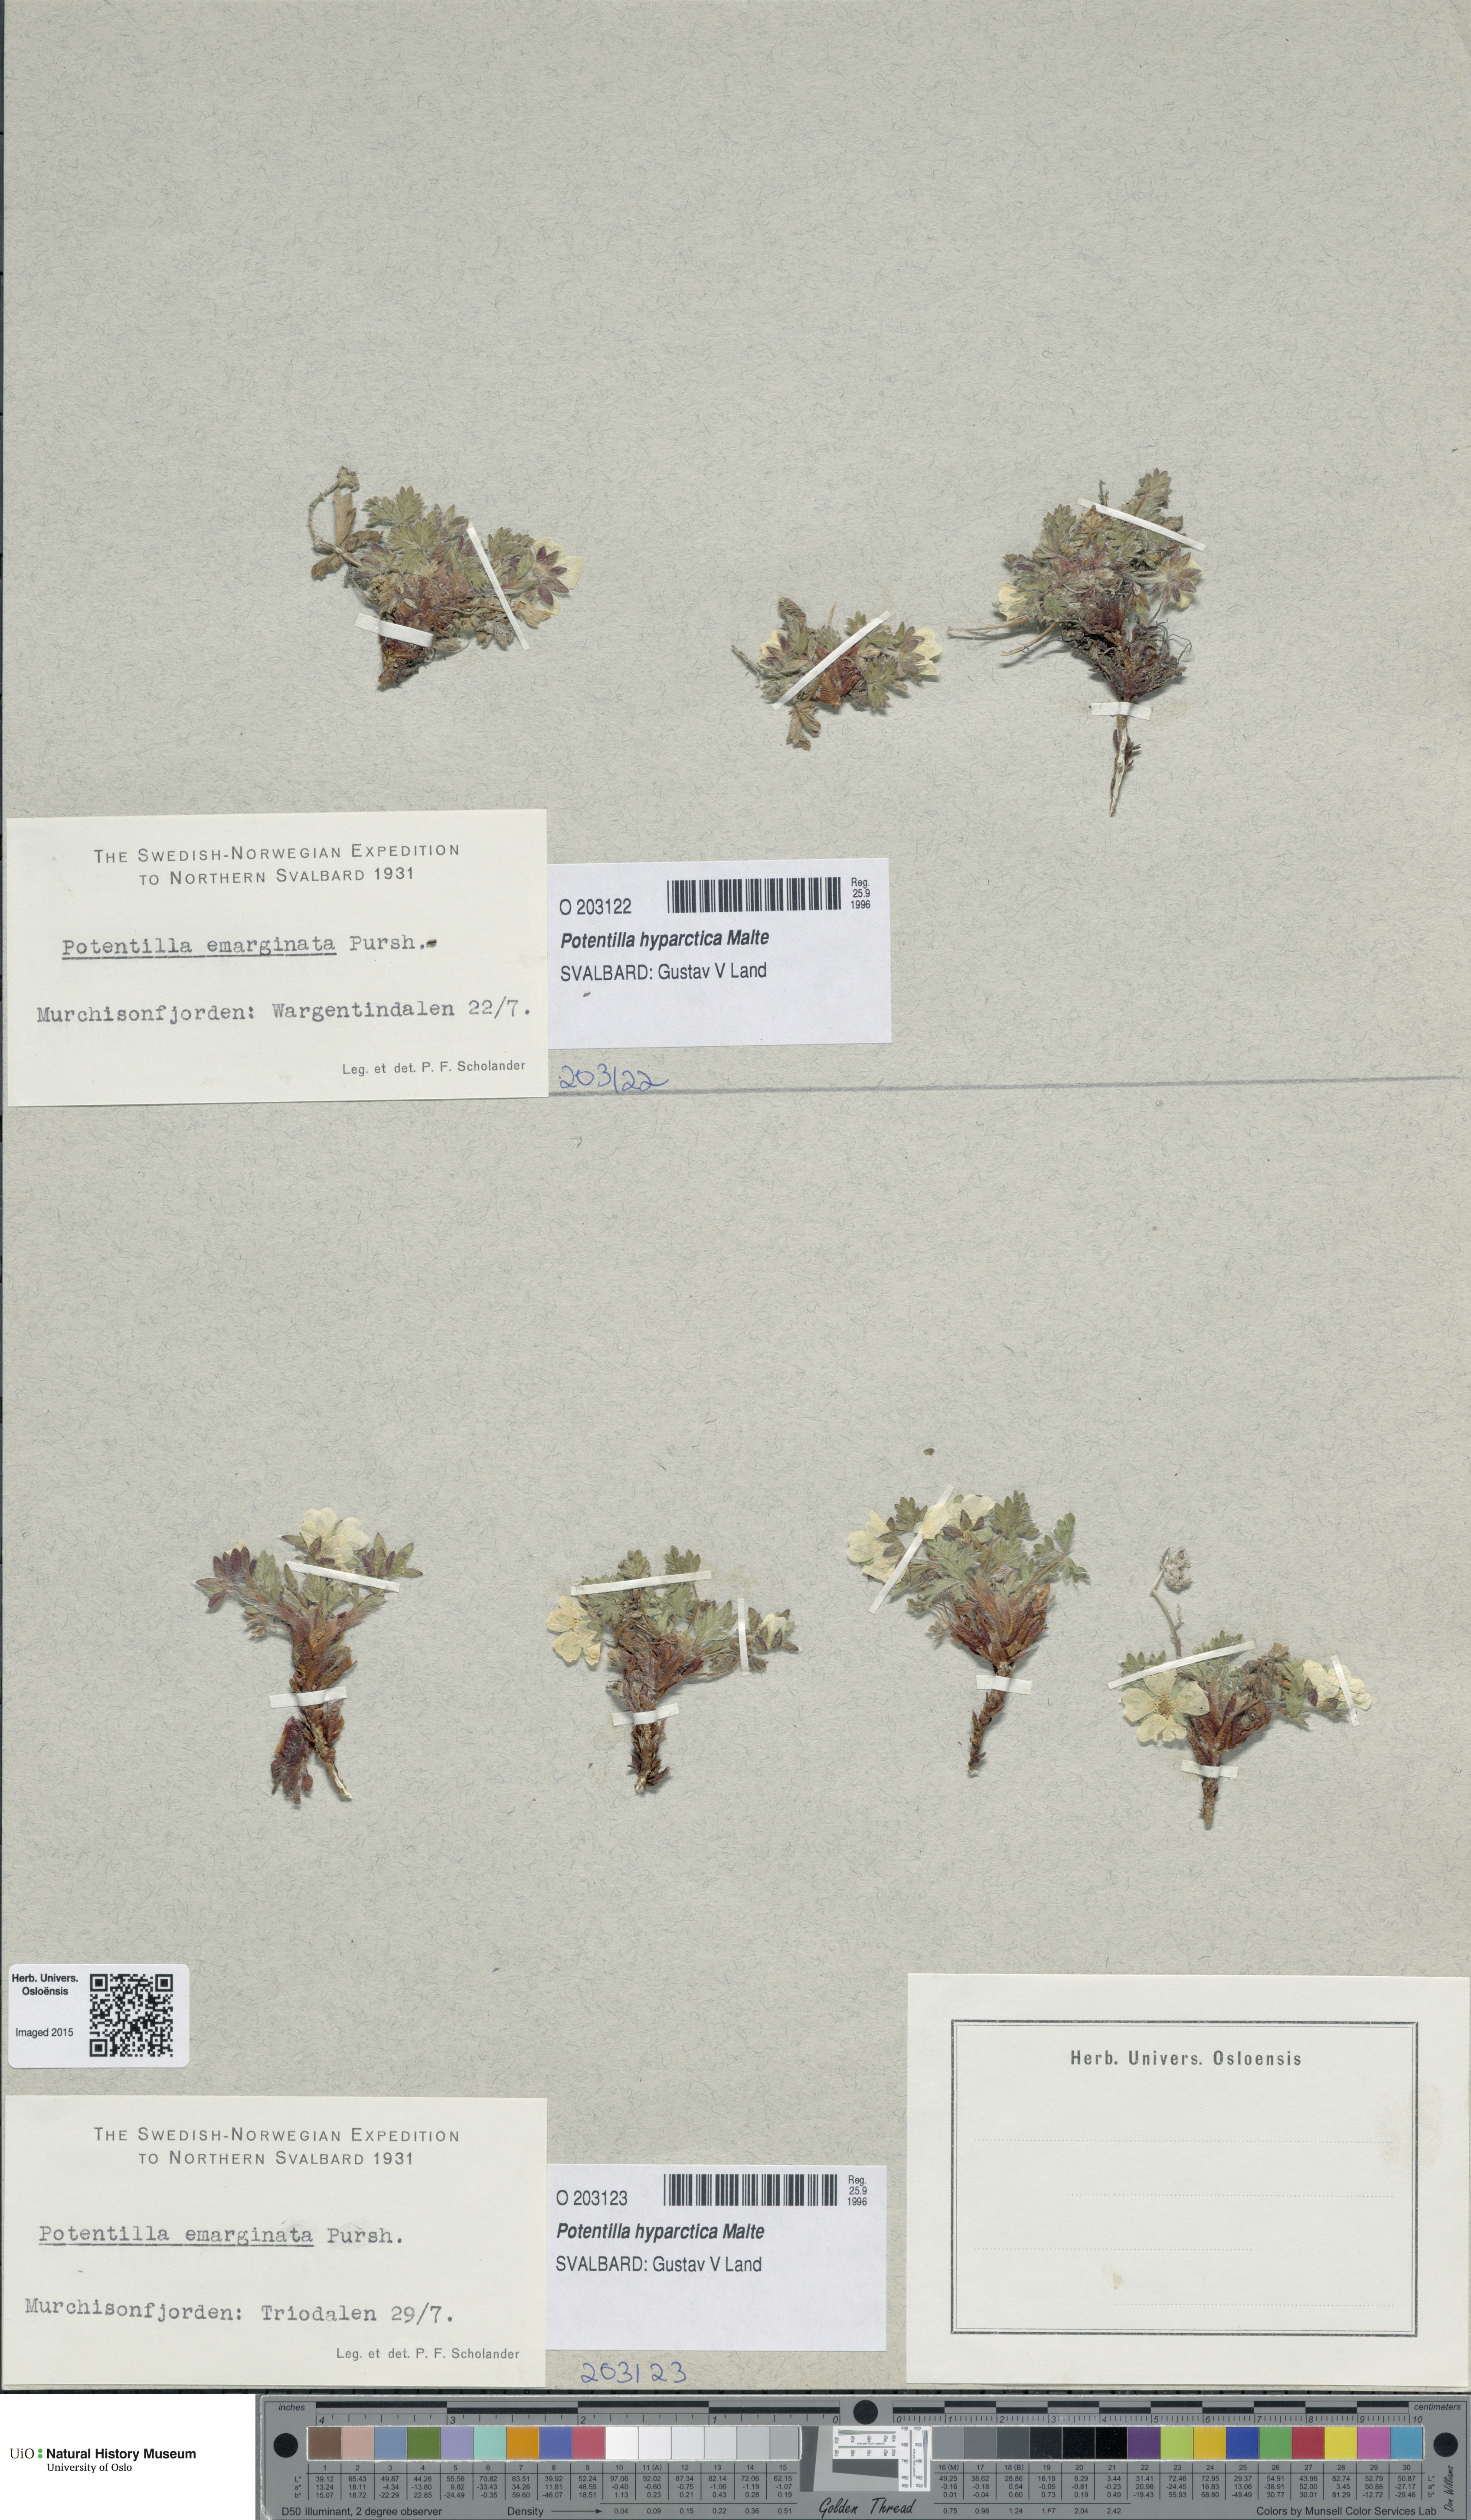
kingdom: Plantae
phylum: Tracheophyta
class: Magnoliopsida
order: Rosales
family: Rosaceae
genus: Potentilla
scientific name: Potentilla hyparctica
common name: Arctic cinquefoil
